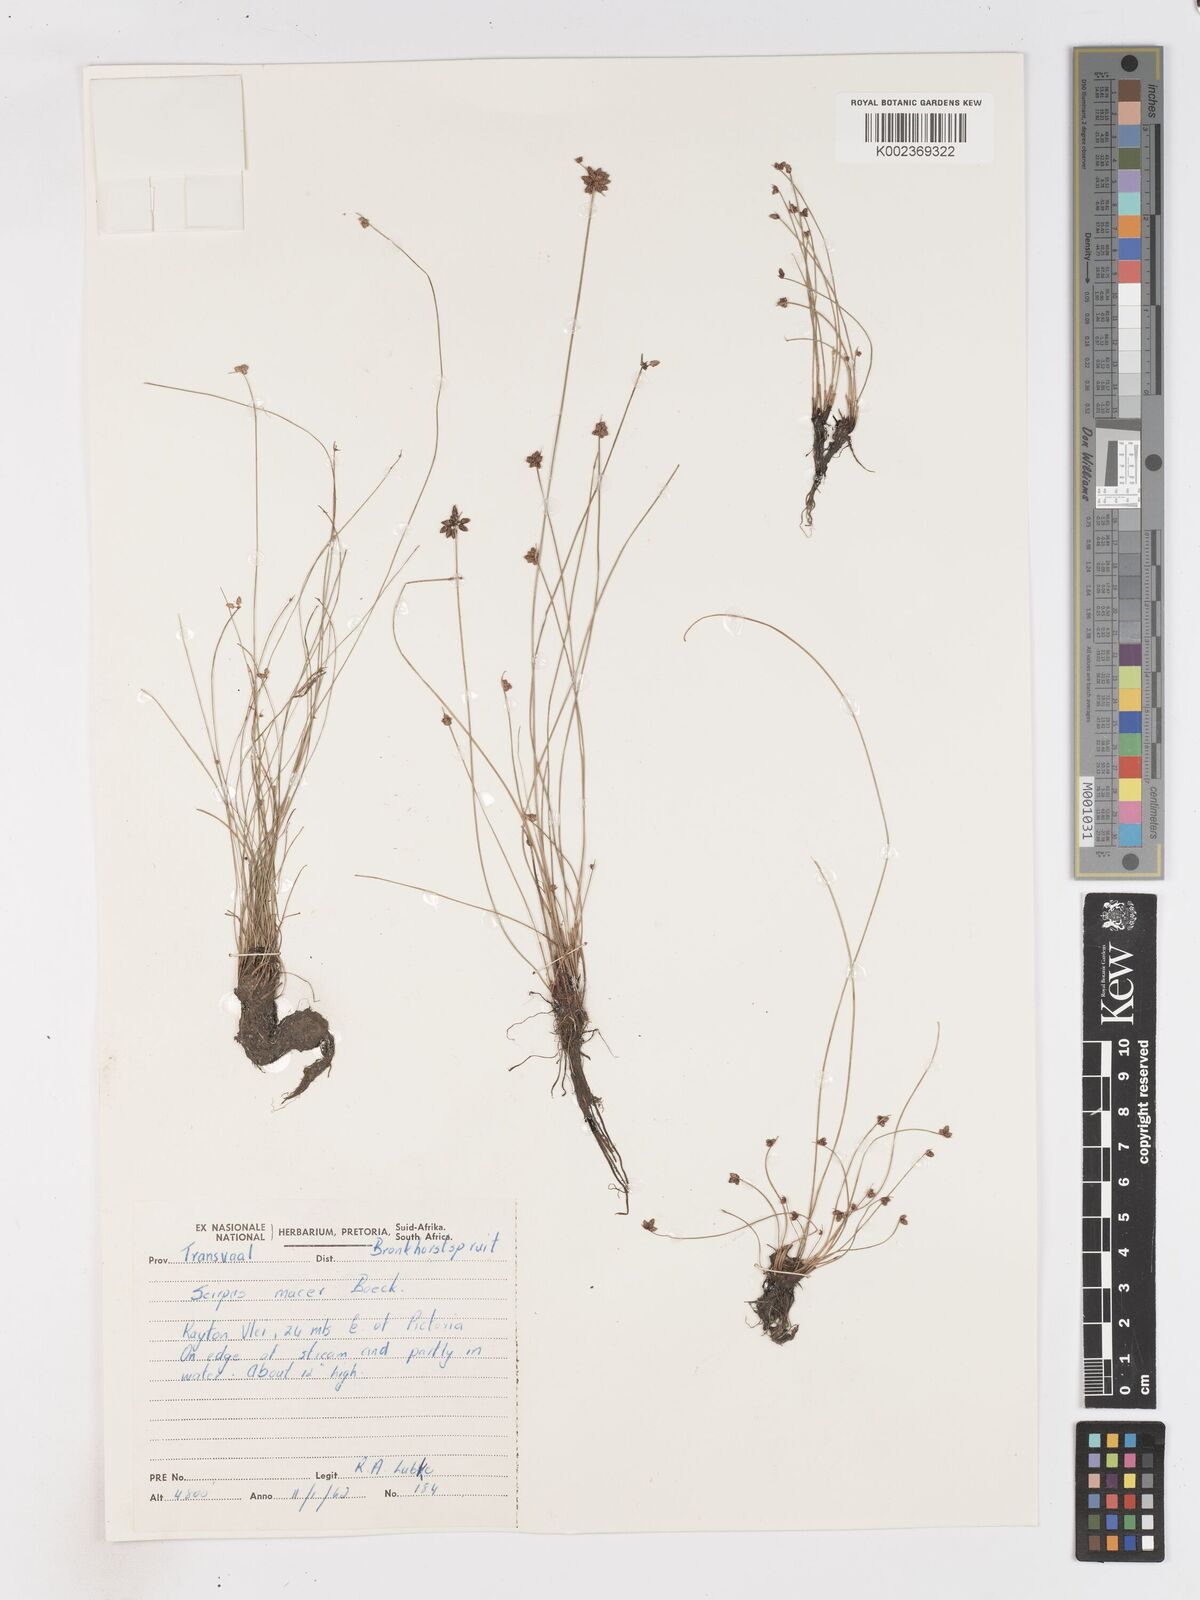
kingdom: Plantae
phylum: Tracheophyta
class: Liliopsida
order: Poales
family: Cyperaceae
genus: Isolepis
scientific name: Isolepis costata
